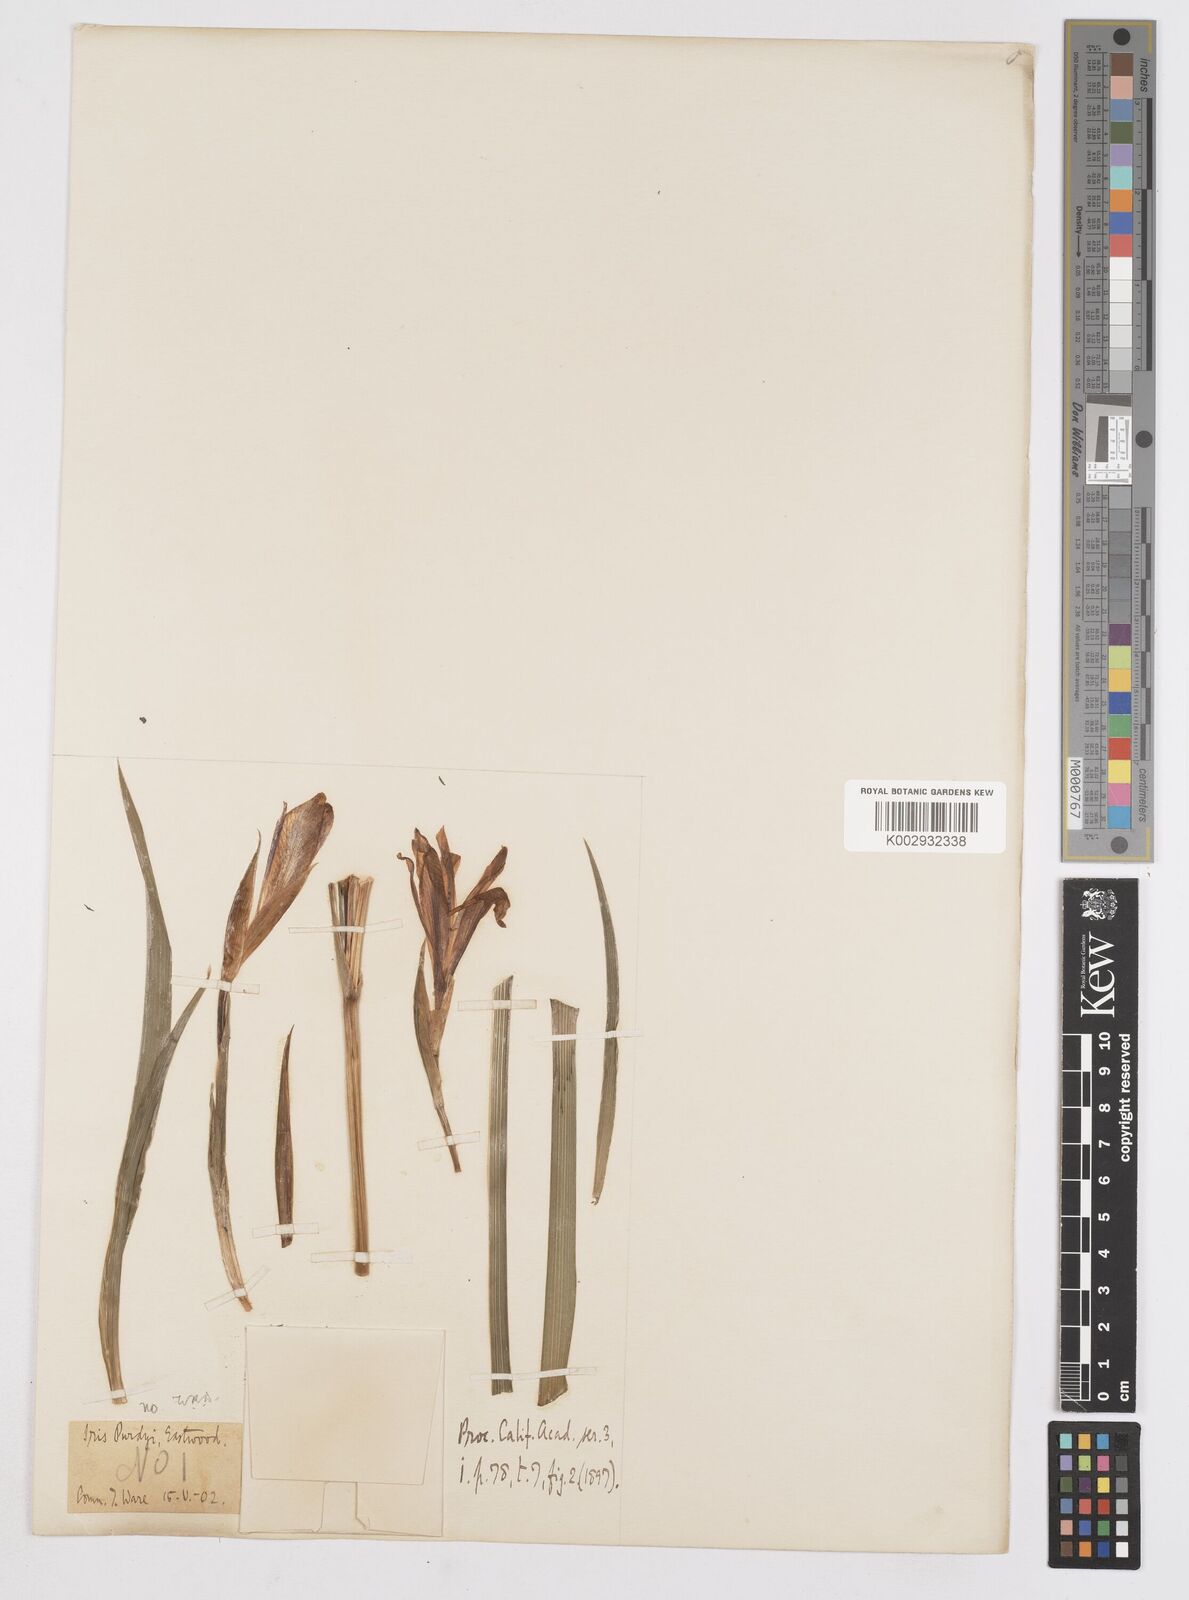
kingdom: Plantae
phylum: Tracheophyta
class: Liliopsida
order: Asparagales
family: Iridaceae
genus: Iris
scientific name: Iris purdyi
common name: Purdy's iris
